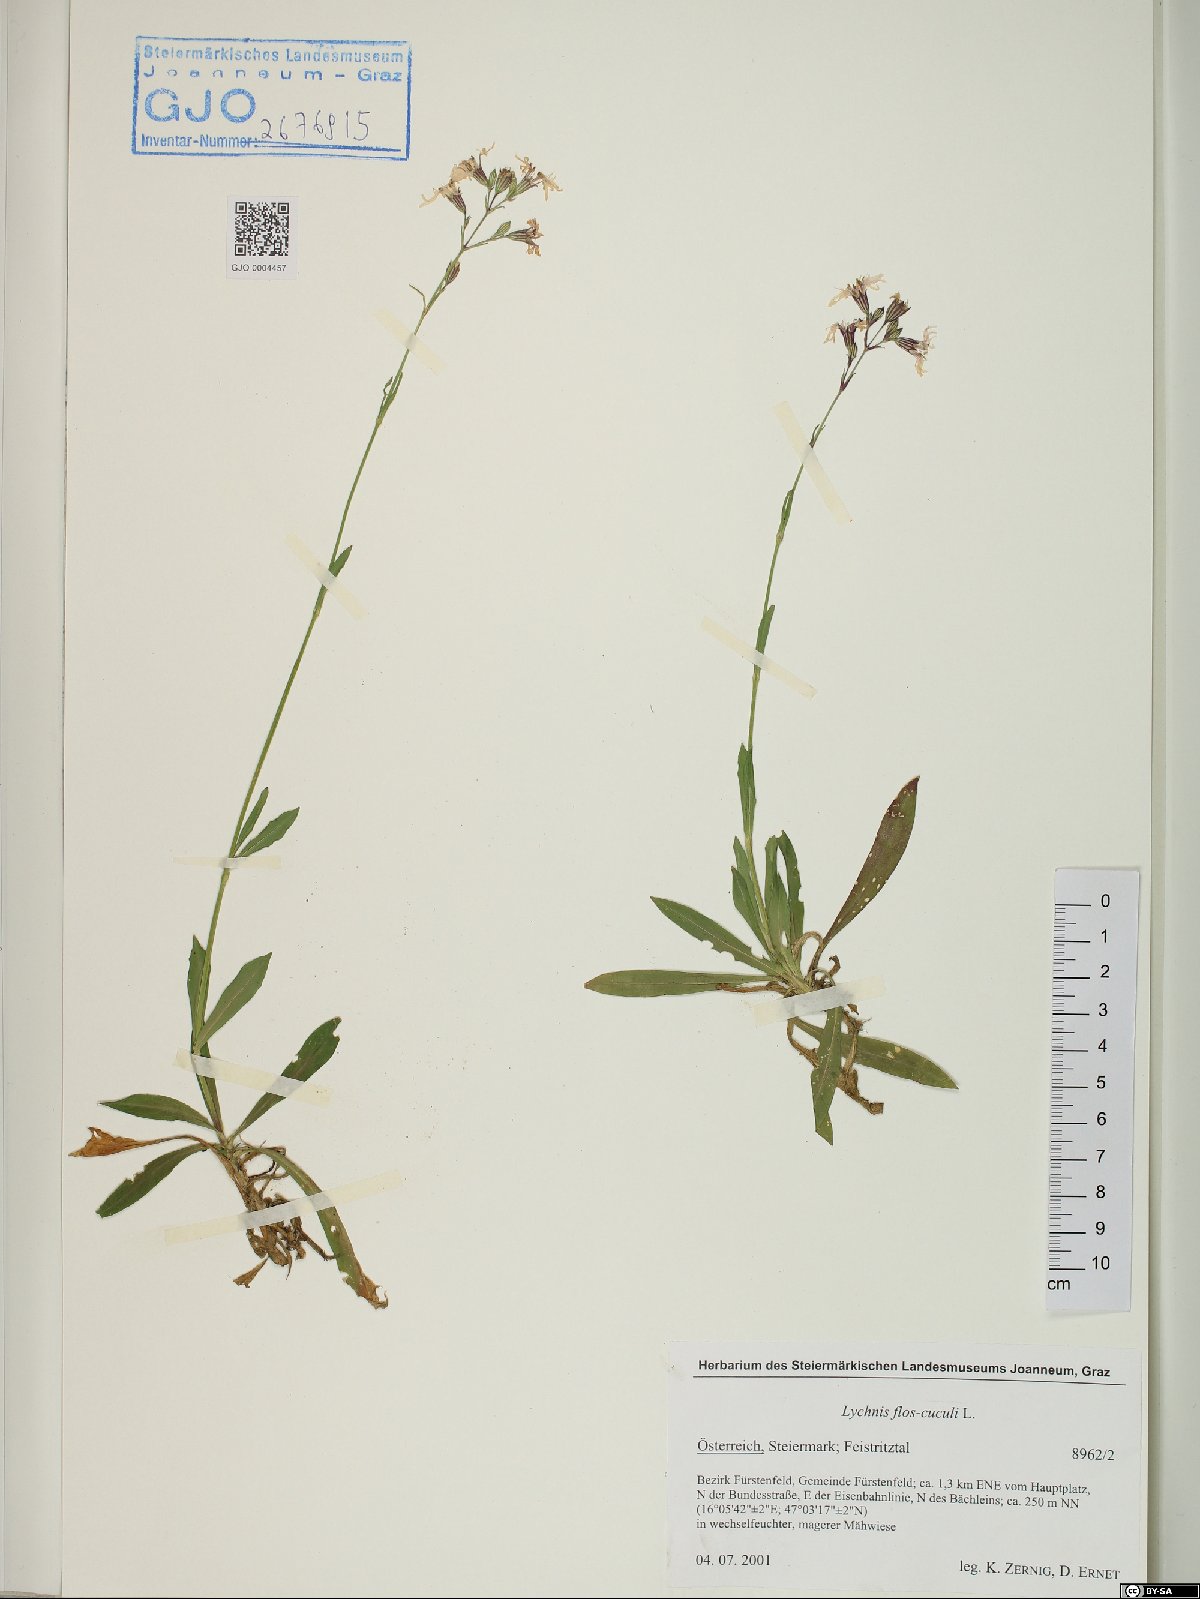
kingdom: Plantae
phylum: Tracheophyta
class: Magnoliopsida
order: Caryophyllales
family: Caryophyllaceae
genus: Silene
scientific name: Silene flos-cuculi
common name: Ragged-robin
